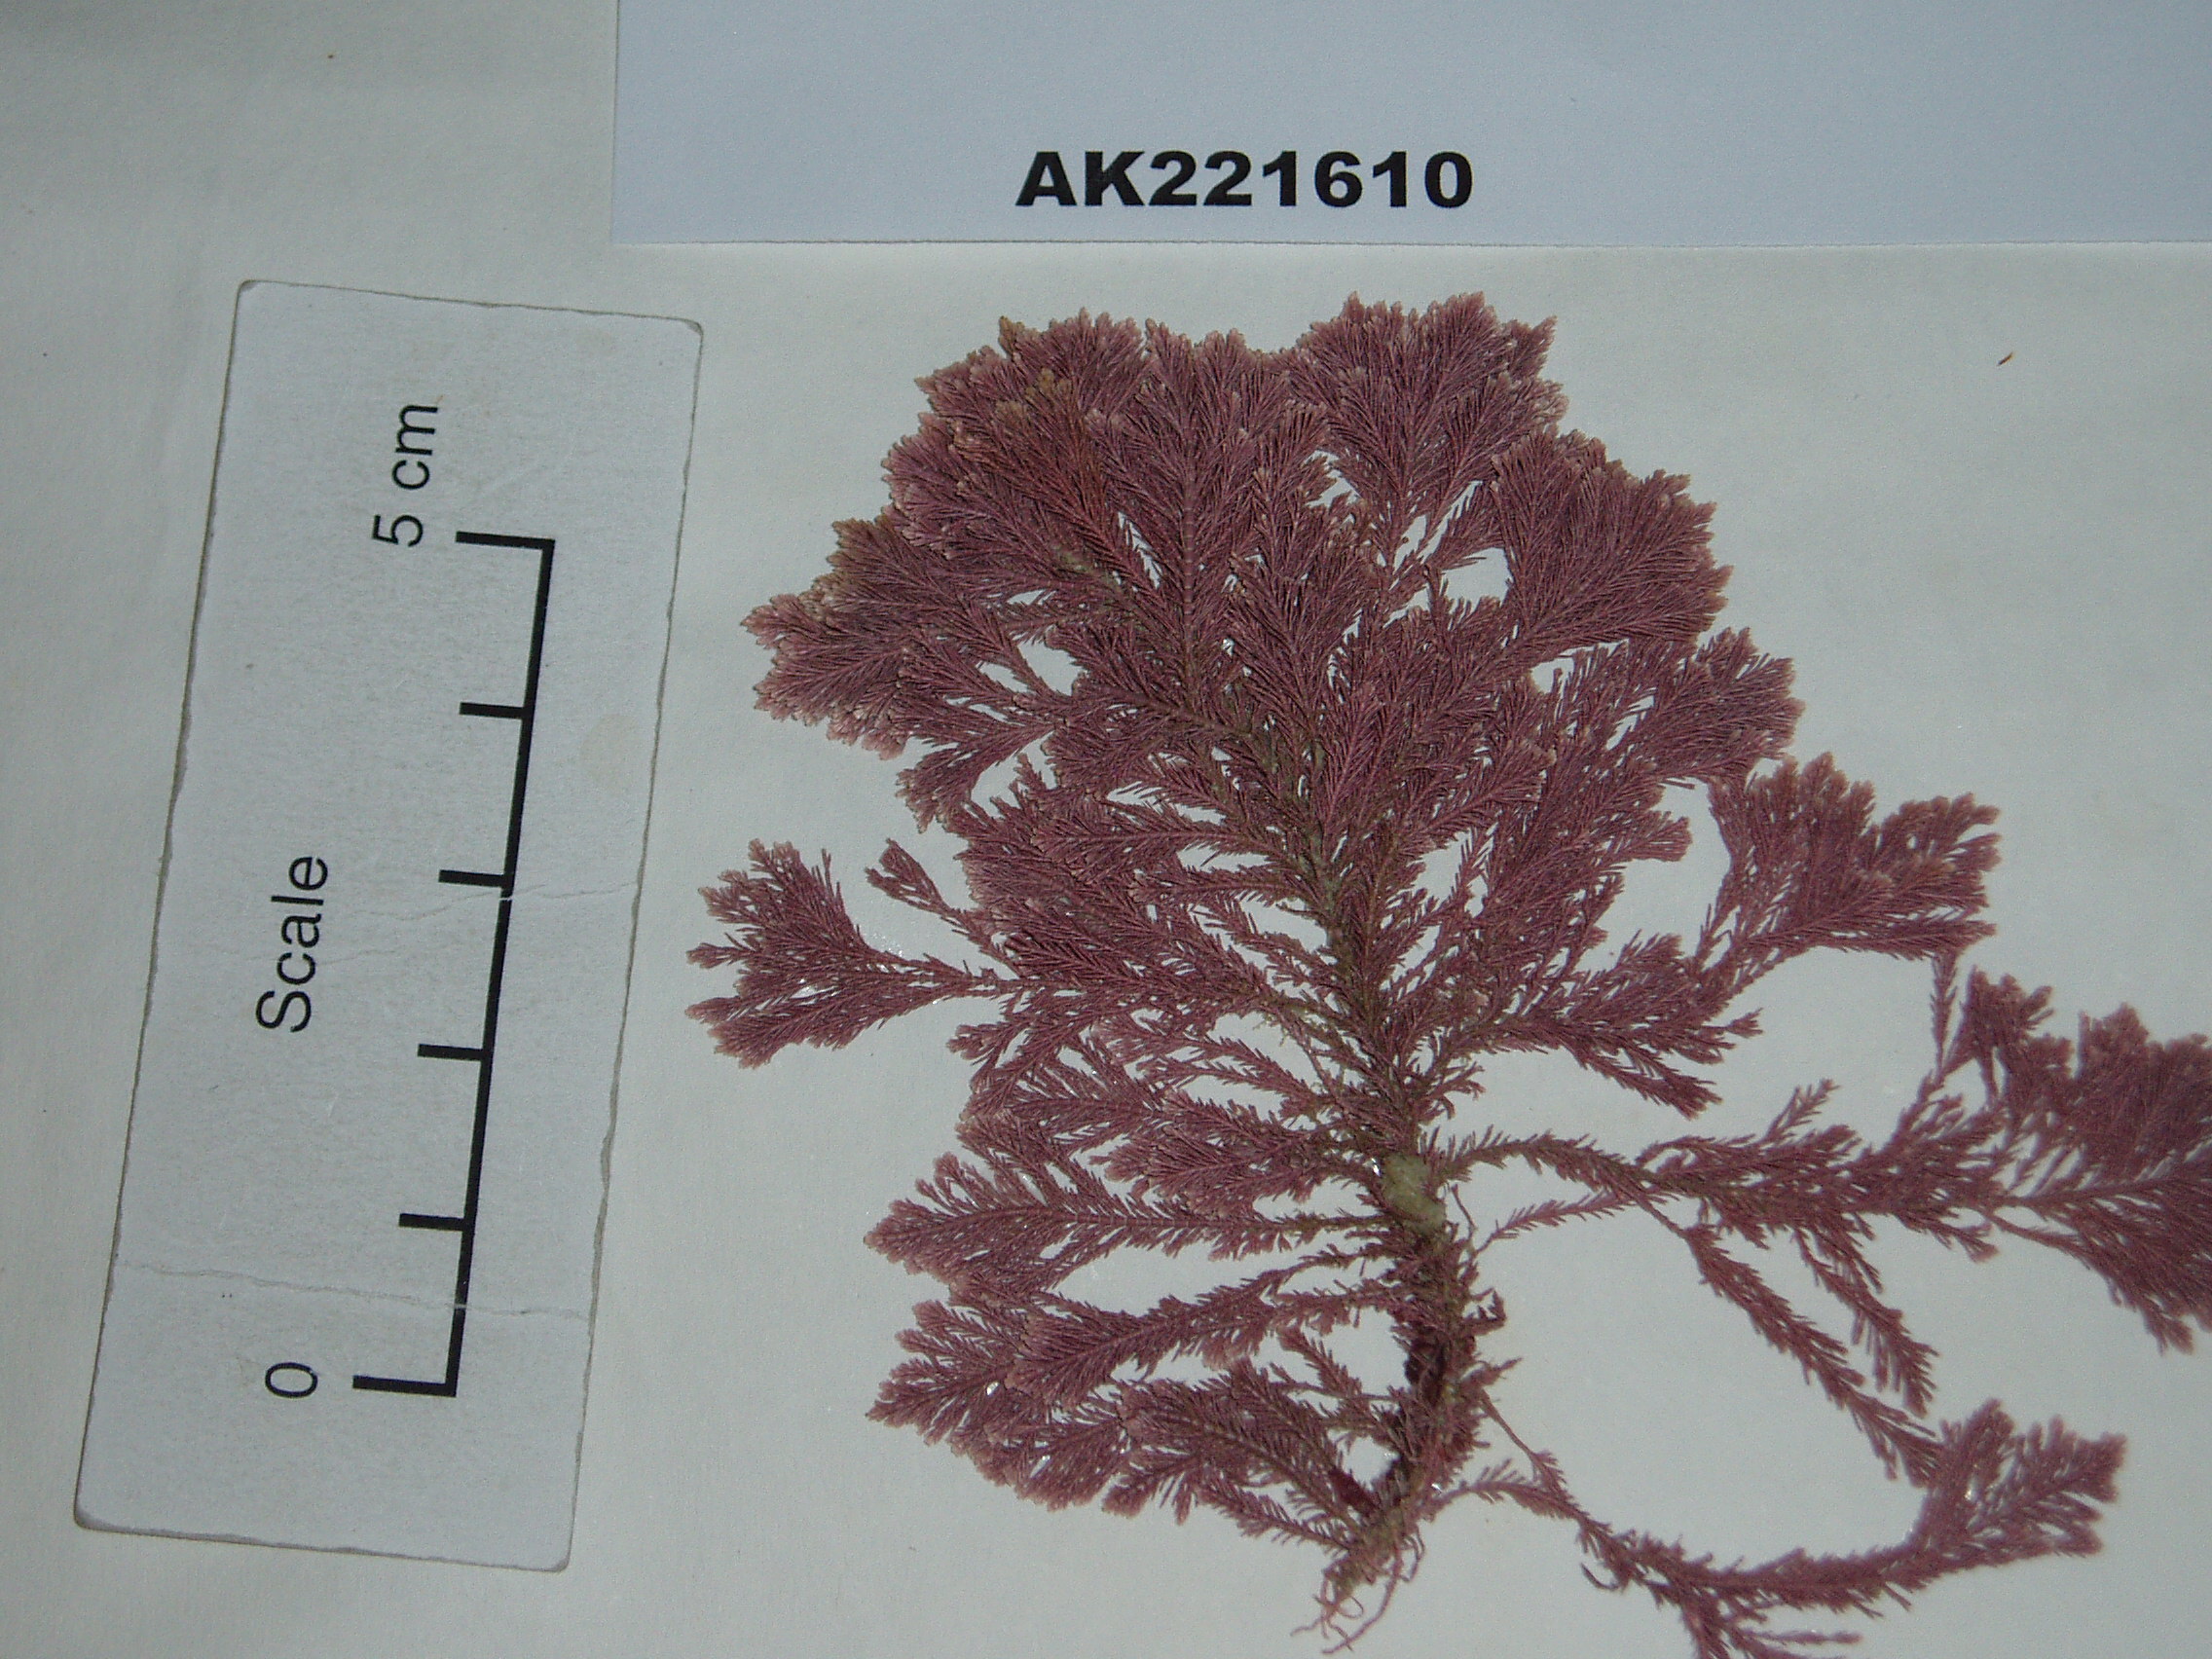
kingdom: Plantae
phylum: Rhodophyta
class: Florideophyceae
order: Corallinales
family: Corallinaceae
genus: Jania
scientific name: Jania rosea
